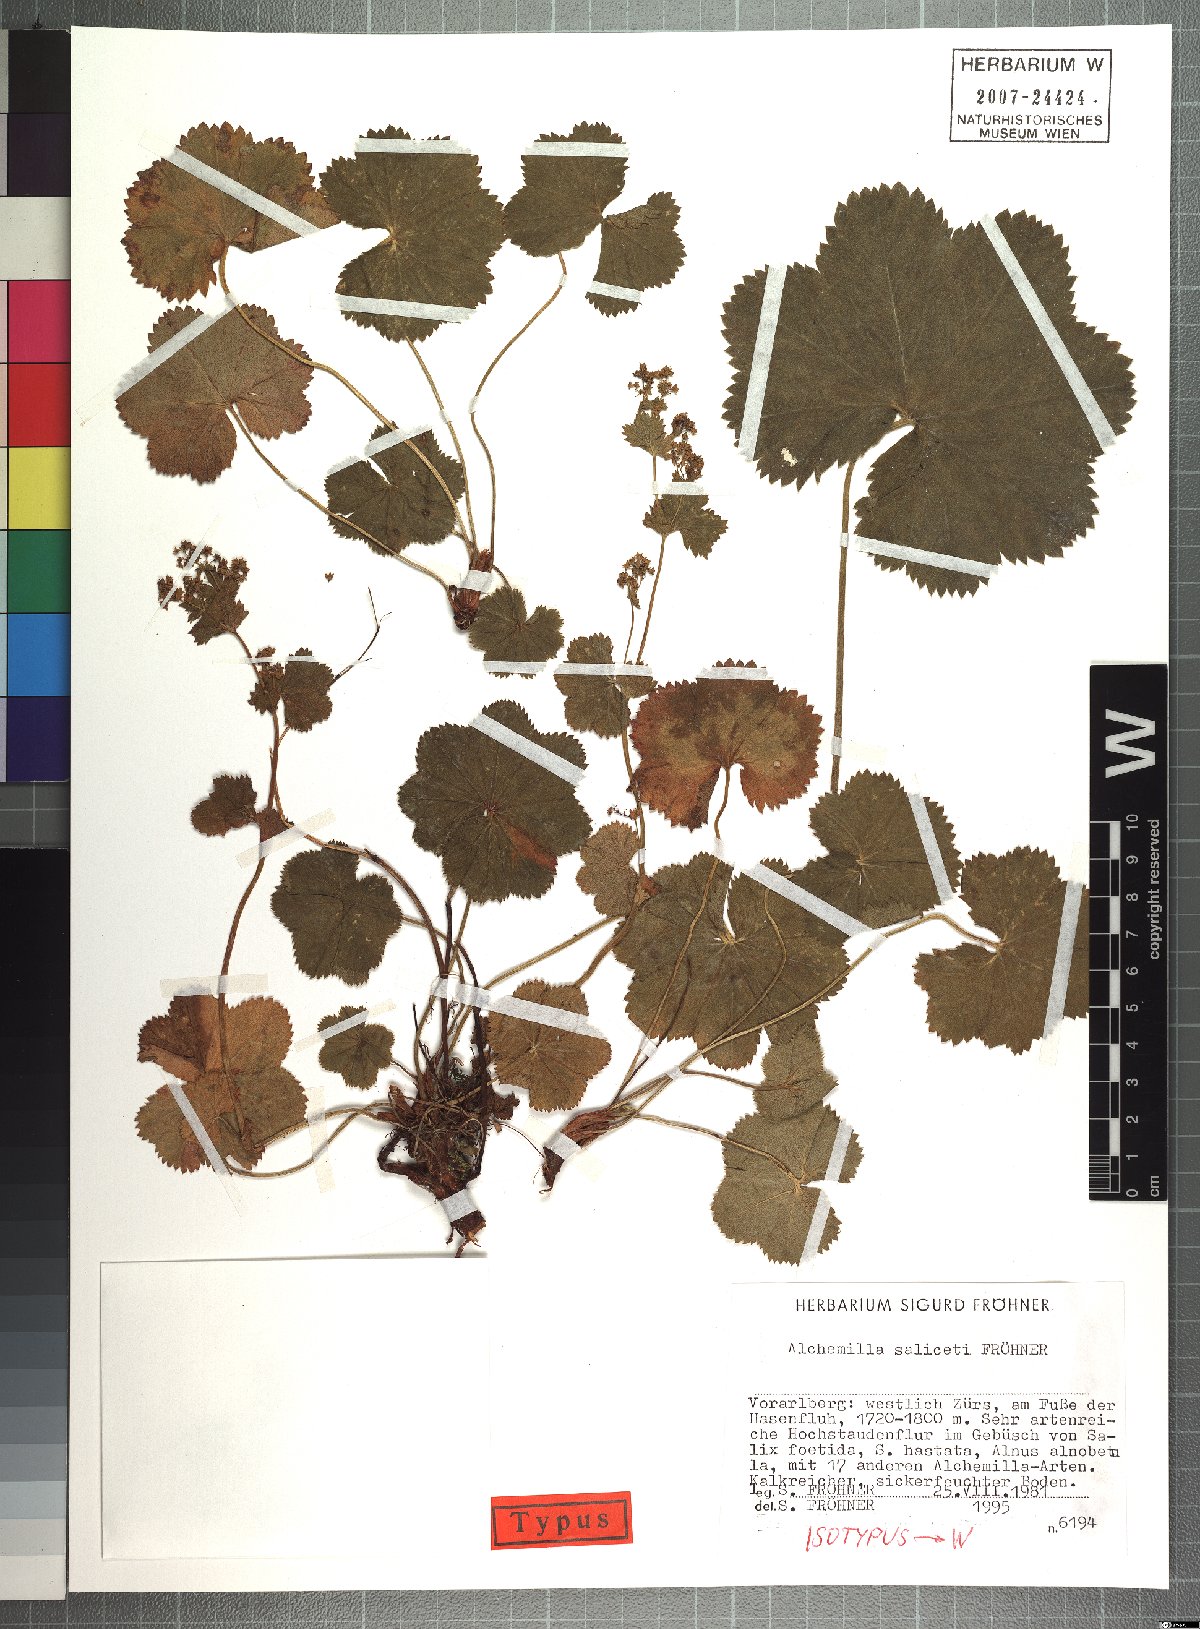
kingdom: Plantae
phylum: Tracheophyta
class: Magnoliopsida
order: Rosales
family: Rosaceae
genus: Alchemilla
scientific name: Alchemilla saliceti
